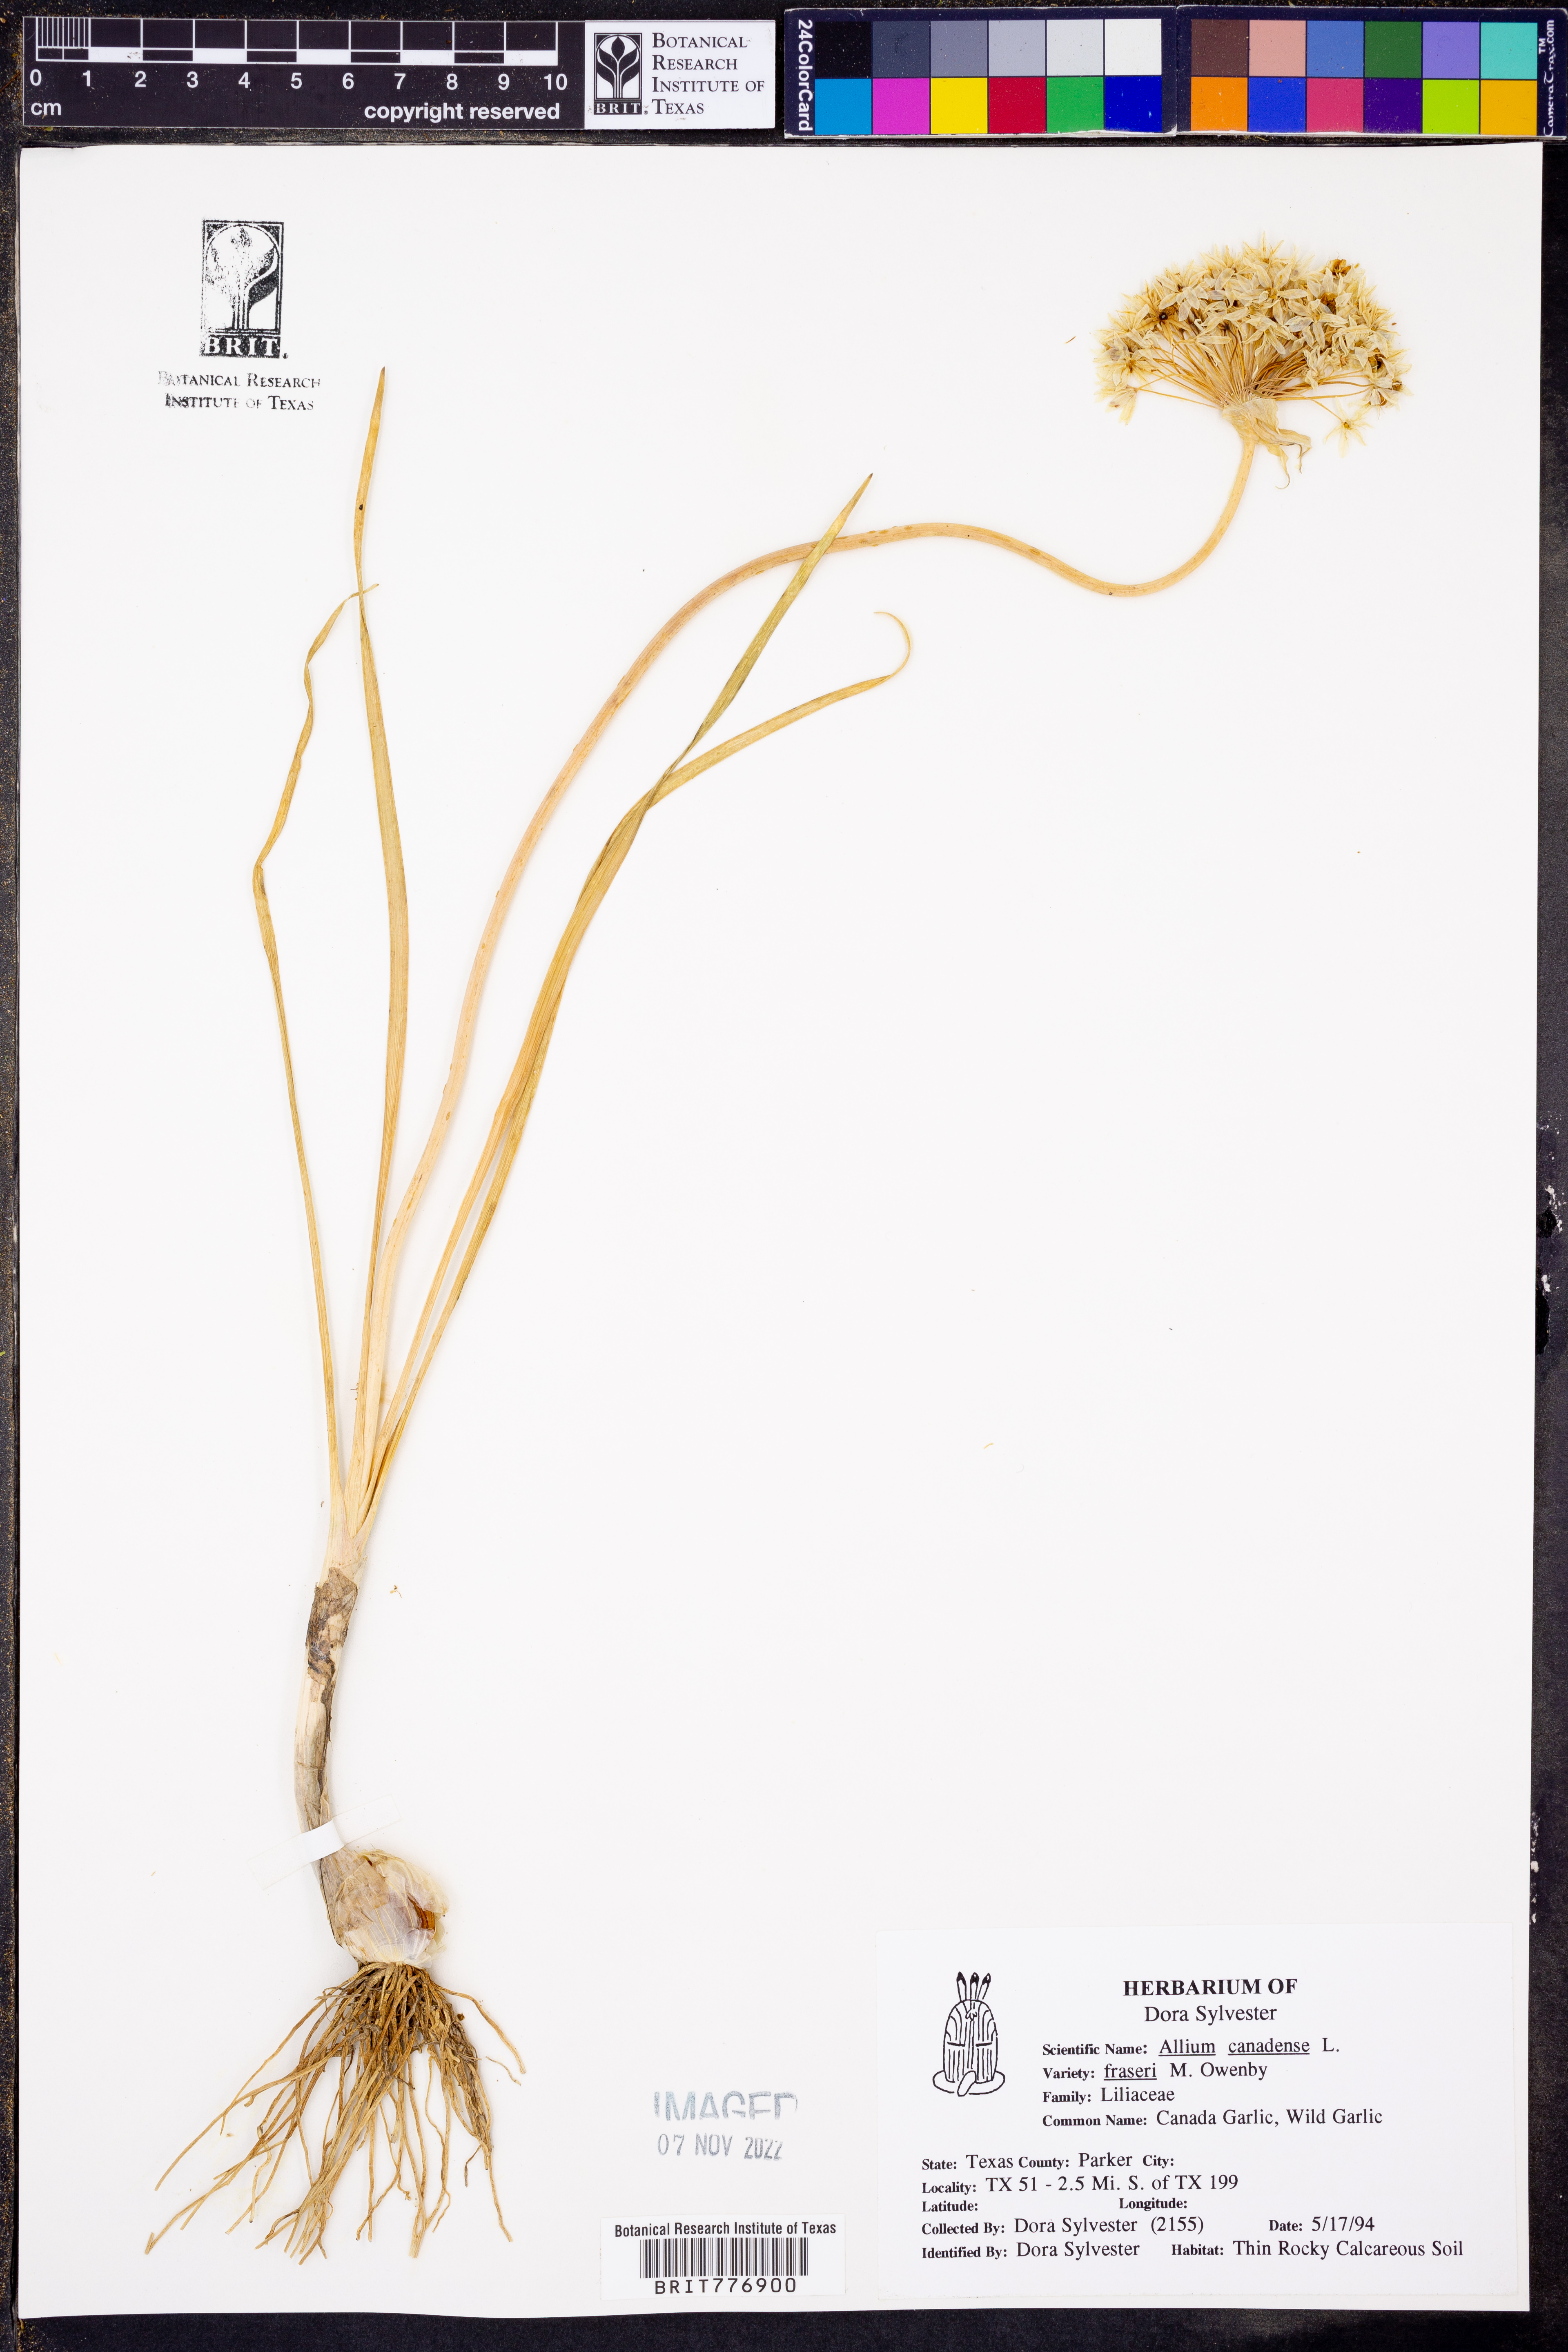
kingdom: Plantae
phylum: Tracheophyta
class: Liliopsida
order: Asparagales
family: Amaryllidaceae
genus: Allium
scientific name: Allium fraseri
